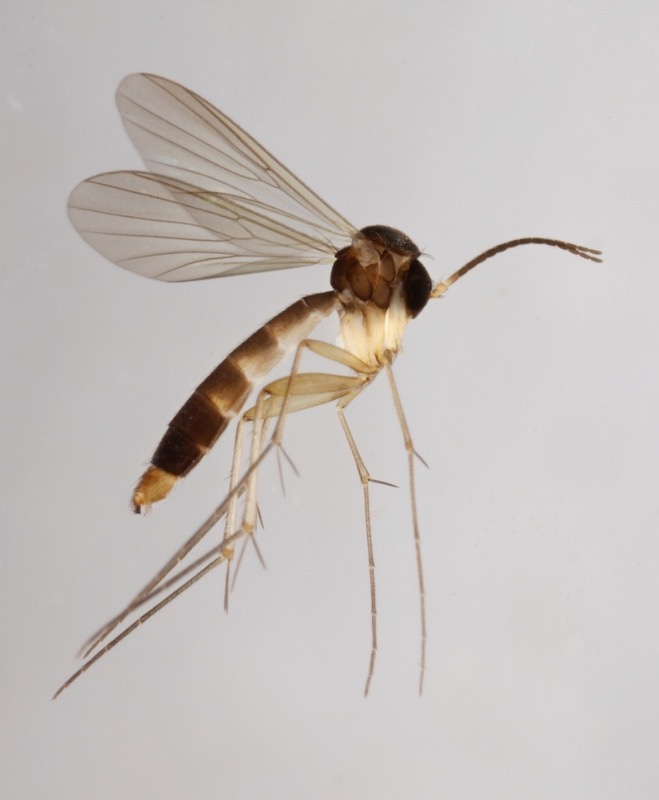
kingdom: Animalia
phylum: Arthropoda
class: Insecta
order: Diptera
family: Mycetophilidae
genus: Allodia
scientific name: Allodia ornaticollis
